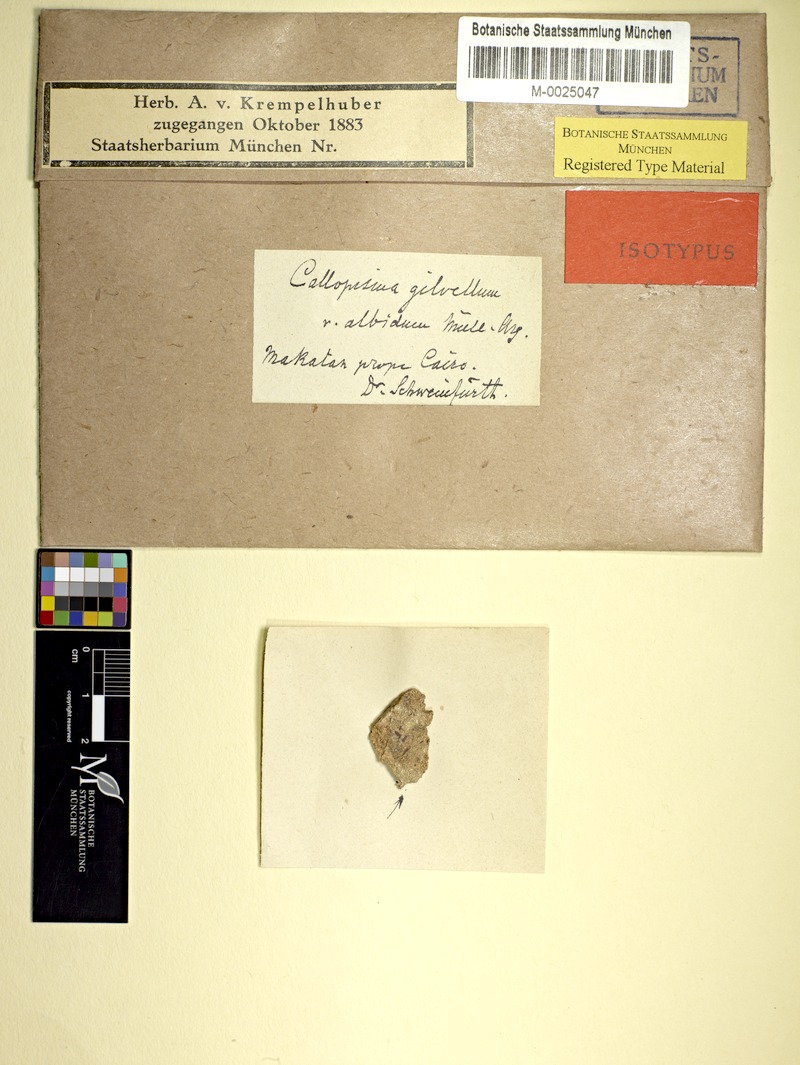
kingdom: Fungi
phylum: Ascomycota
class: Lecanoromycetes
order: Teloschistales
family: Teloschistaceae
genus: Caloplaca
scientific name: Caloplaca cerina
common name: Gray-rimmed firedot lichen
